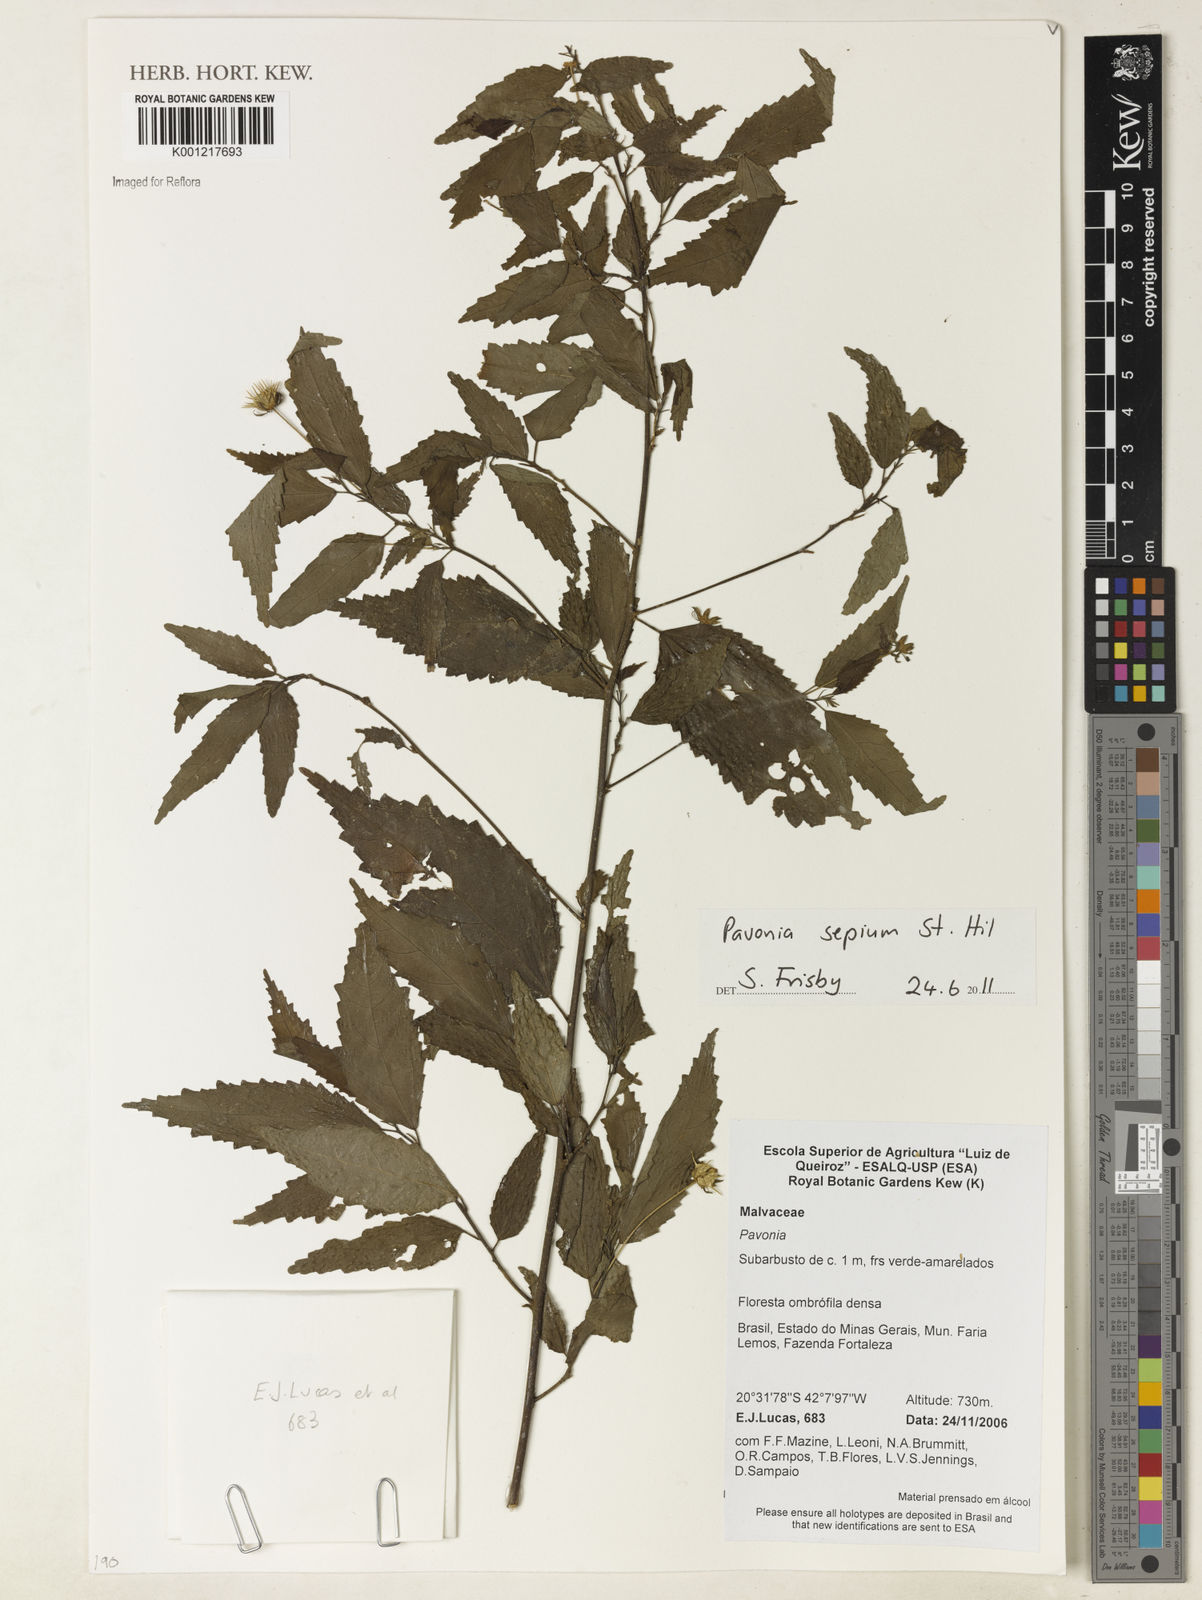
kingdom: Plantae
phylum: Tracheophyta
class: Magnoliopsida
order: Malvales
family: Malvaceae
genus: Pavonia
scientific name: Pavonia sepium
